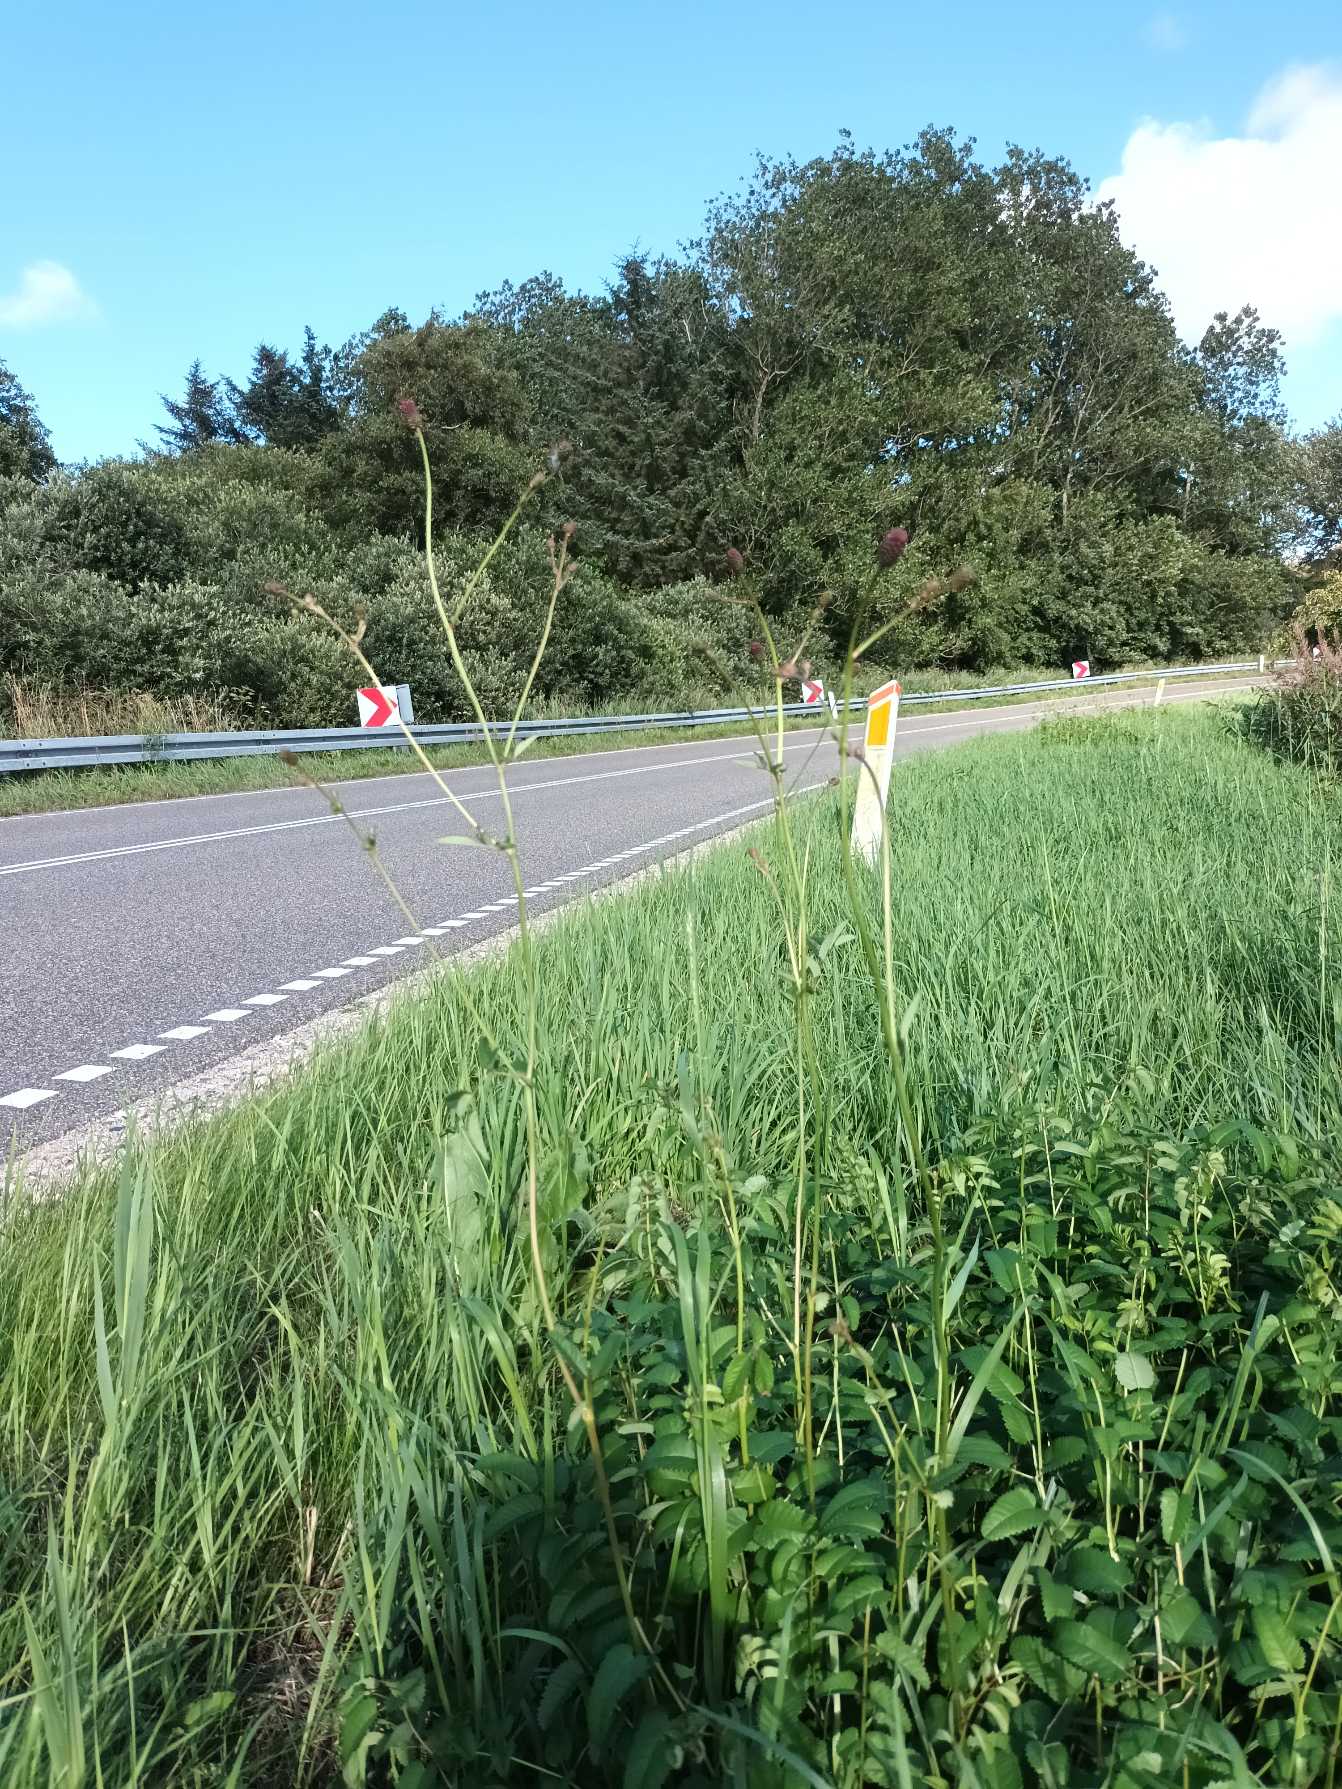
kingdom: Plantae
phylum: Tracheophyta
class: Magnoliopsida
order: Rosales
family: Rosaceae
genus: Sanguisorba
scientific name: Sanguisorba officinalis
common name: Læge-kvæsurt
